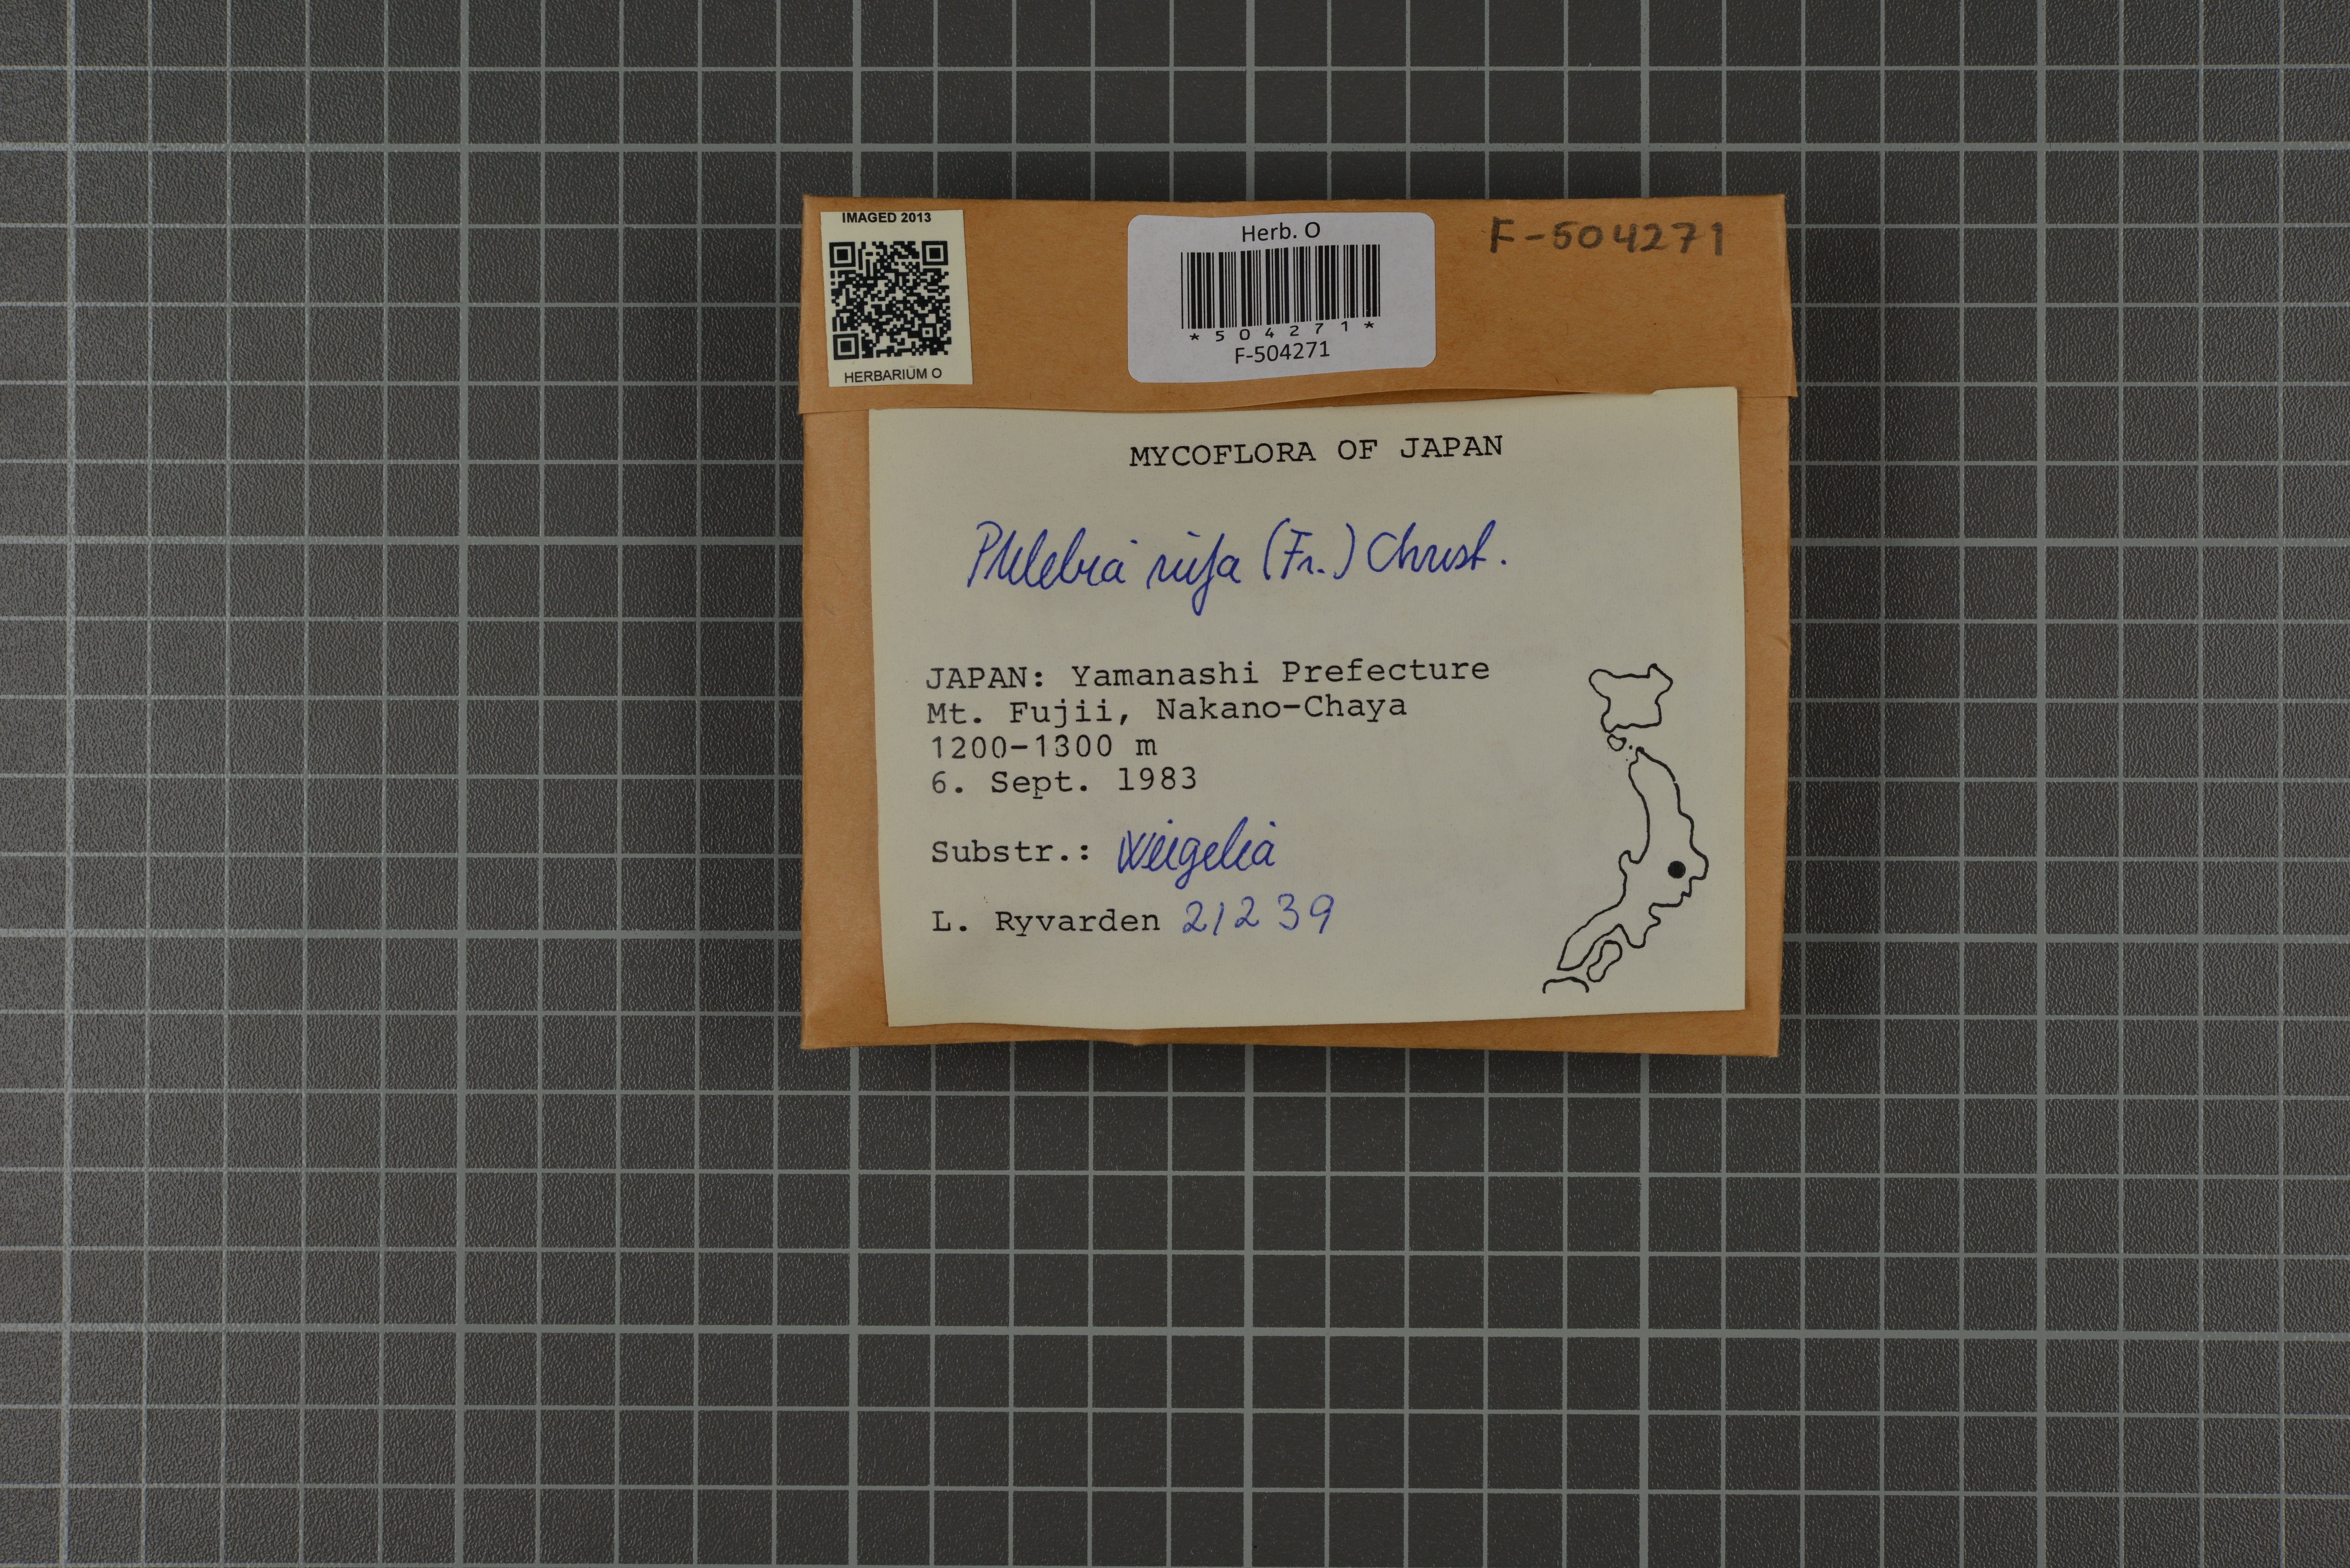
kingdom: Fungi
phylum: Basidiomycota
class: Agaricomycetes
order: Polyporales
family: Meruliaceae
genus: Phlebia
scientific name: Phlebia rufa
